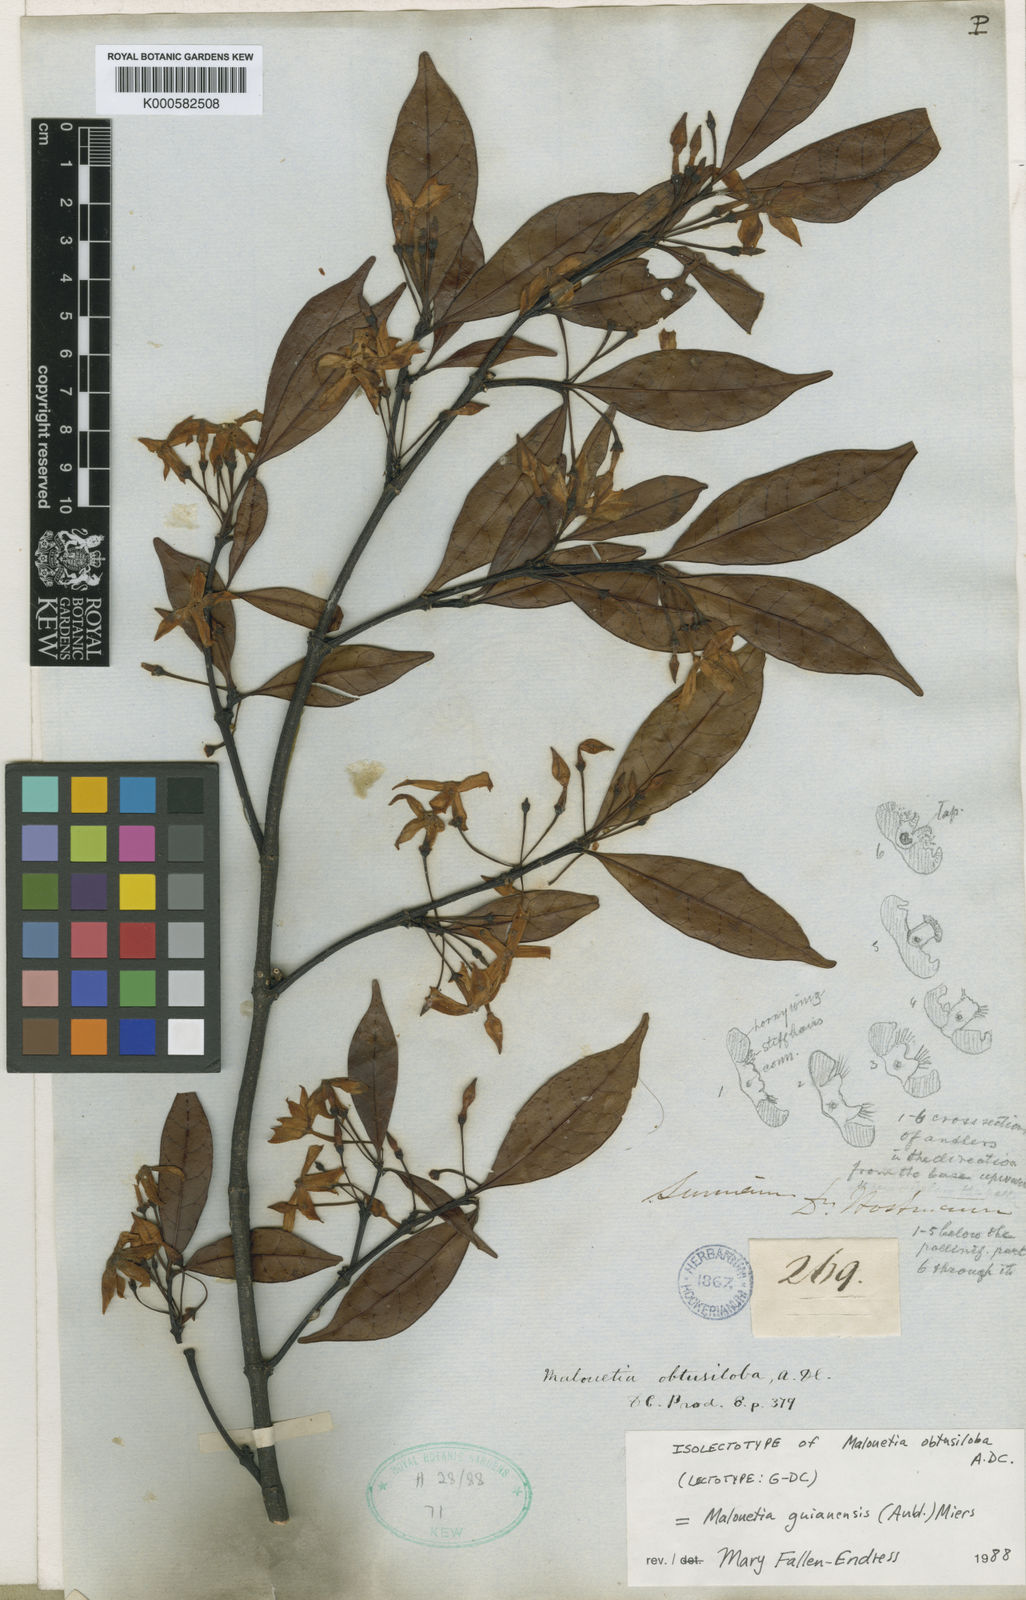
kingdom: Plantae
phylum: Tracheophyta
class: Magnoliopsida
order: Gentianales
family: Apocynaceae
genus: Malouetia
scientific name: Malouetia tamaquarina
